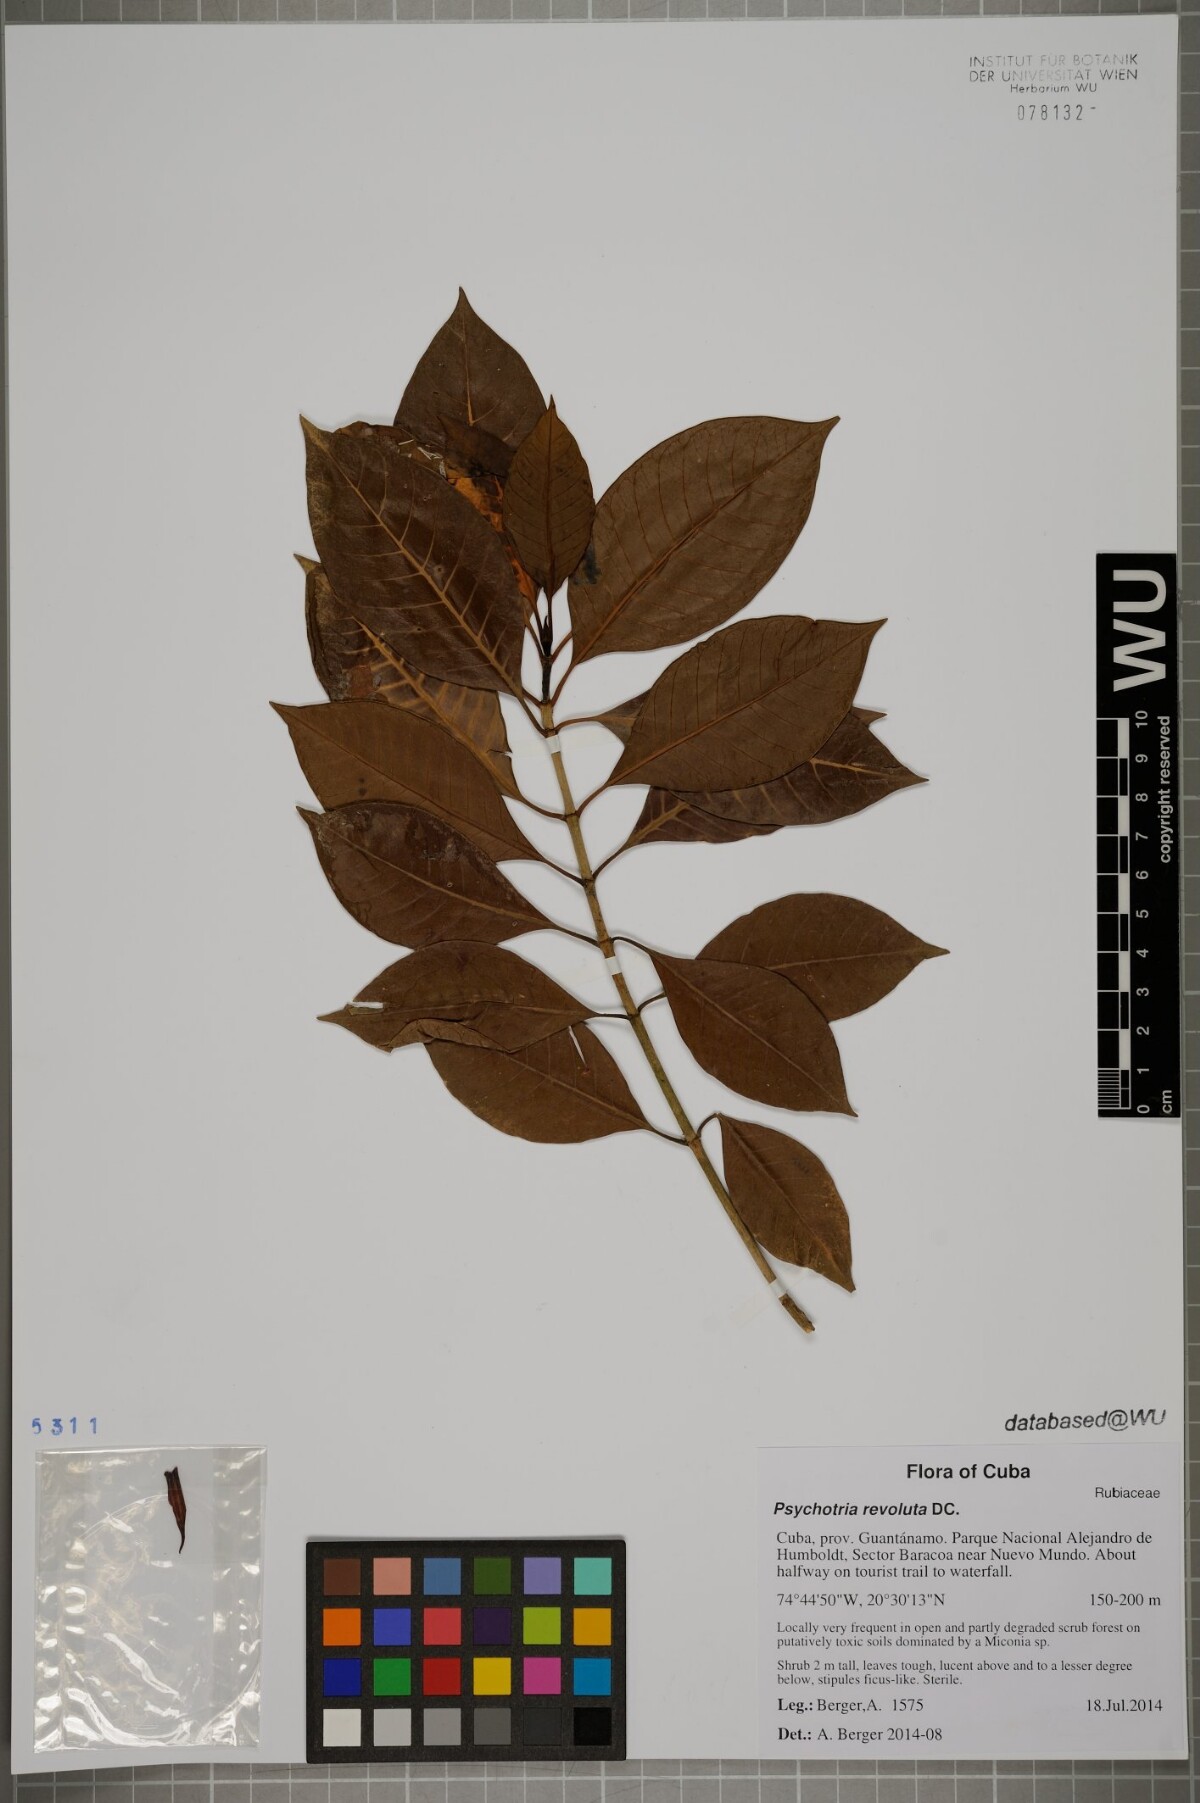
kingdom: Plantae
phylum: Tracheophyta
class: Magnoliopsida
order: Gentianales
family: Rubiaceae
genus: Psychotria
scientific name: Psychotria revoluta
